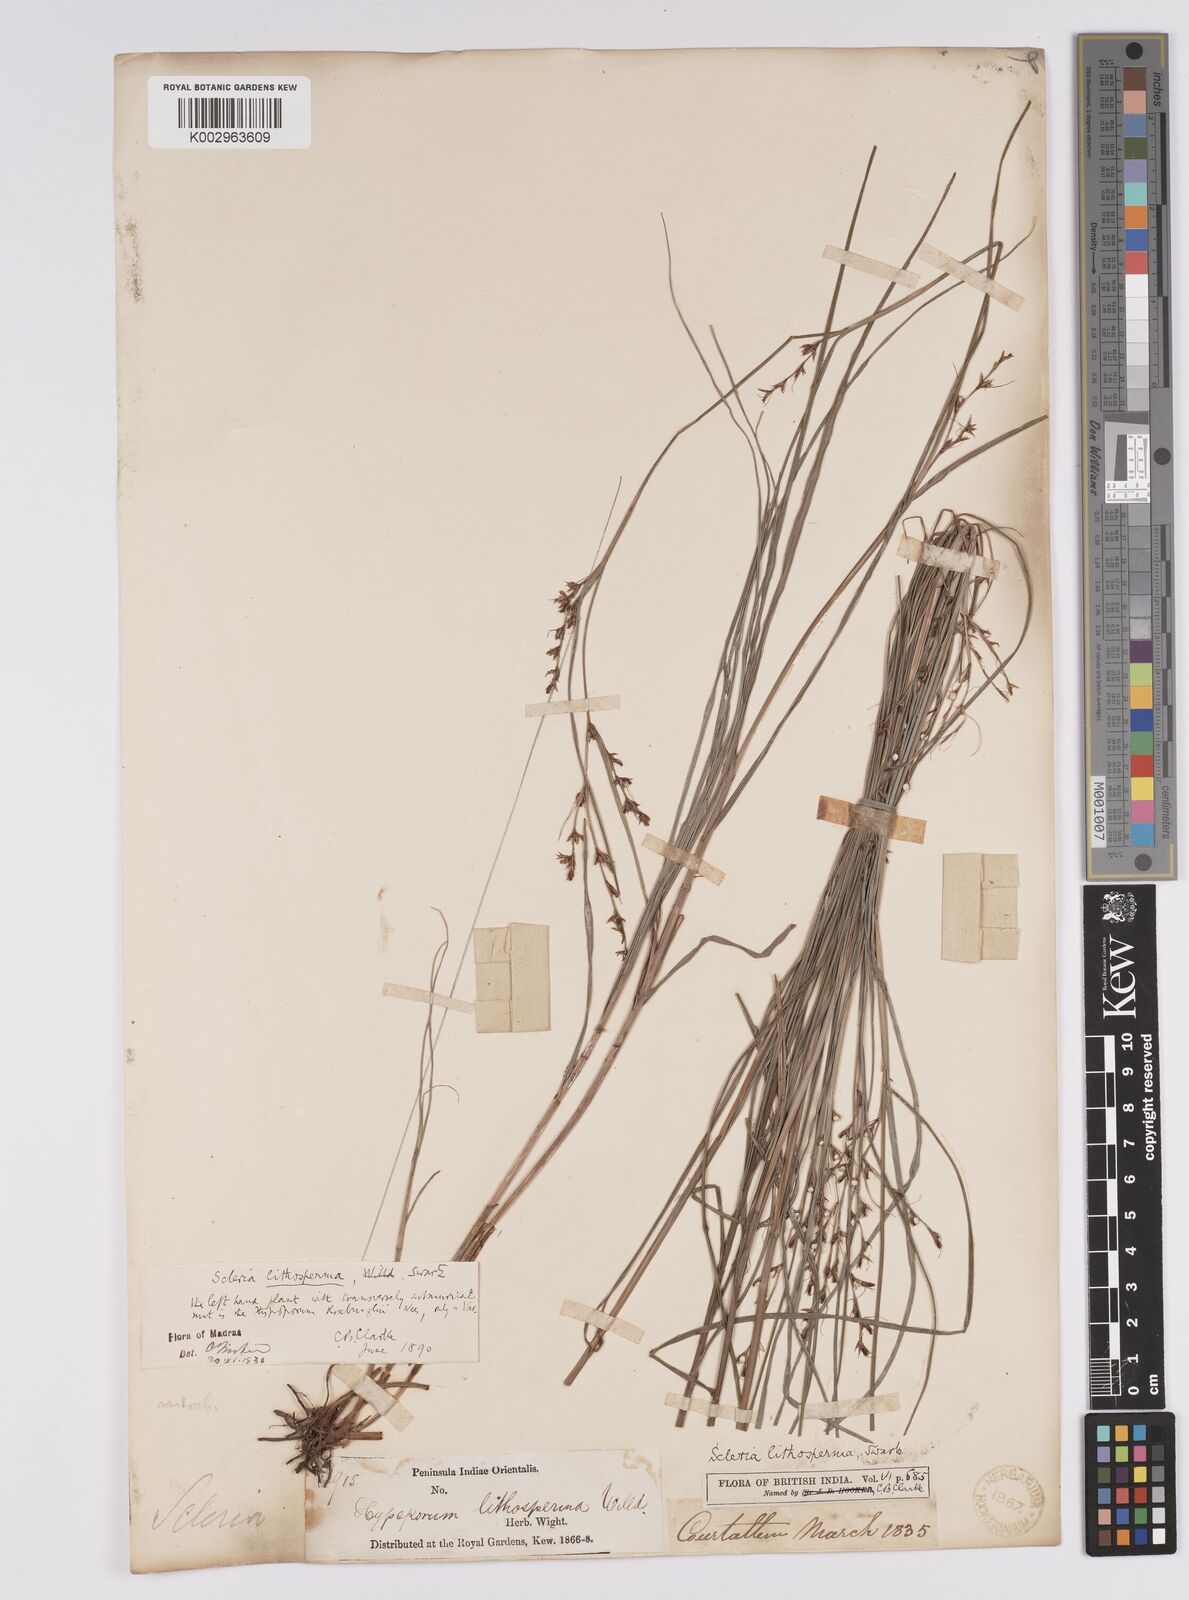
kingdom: Plantae
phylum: Tracheophyta
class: Liliopsida
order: Poales
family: Cyperaceae
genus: Scleria
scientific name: Scleria lithosperma
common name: Florida keys nut-rush
